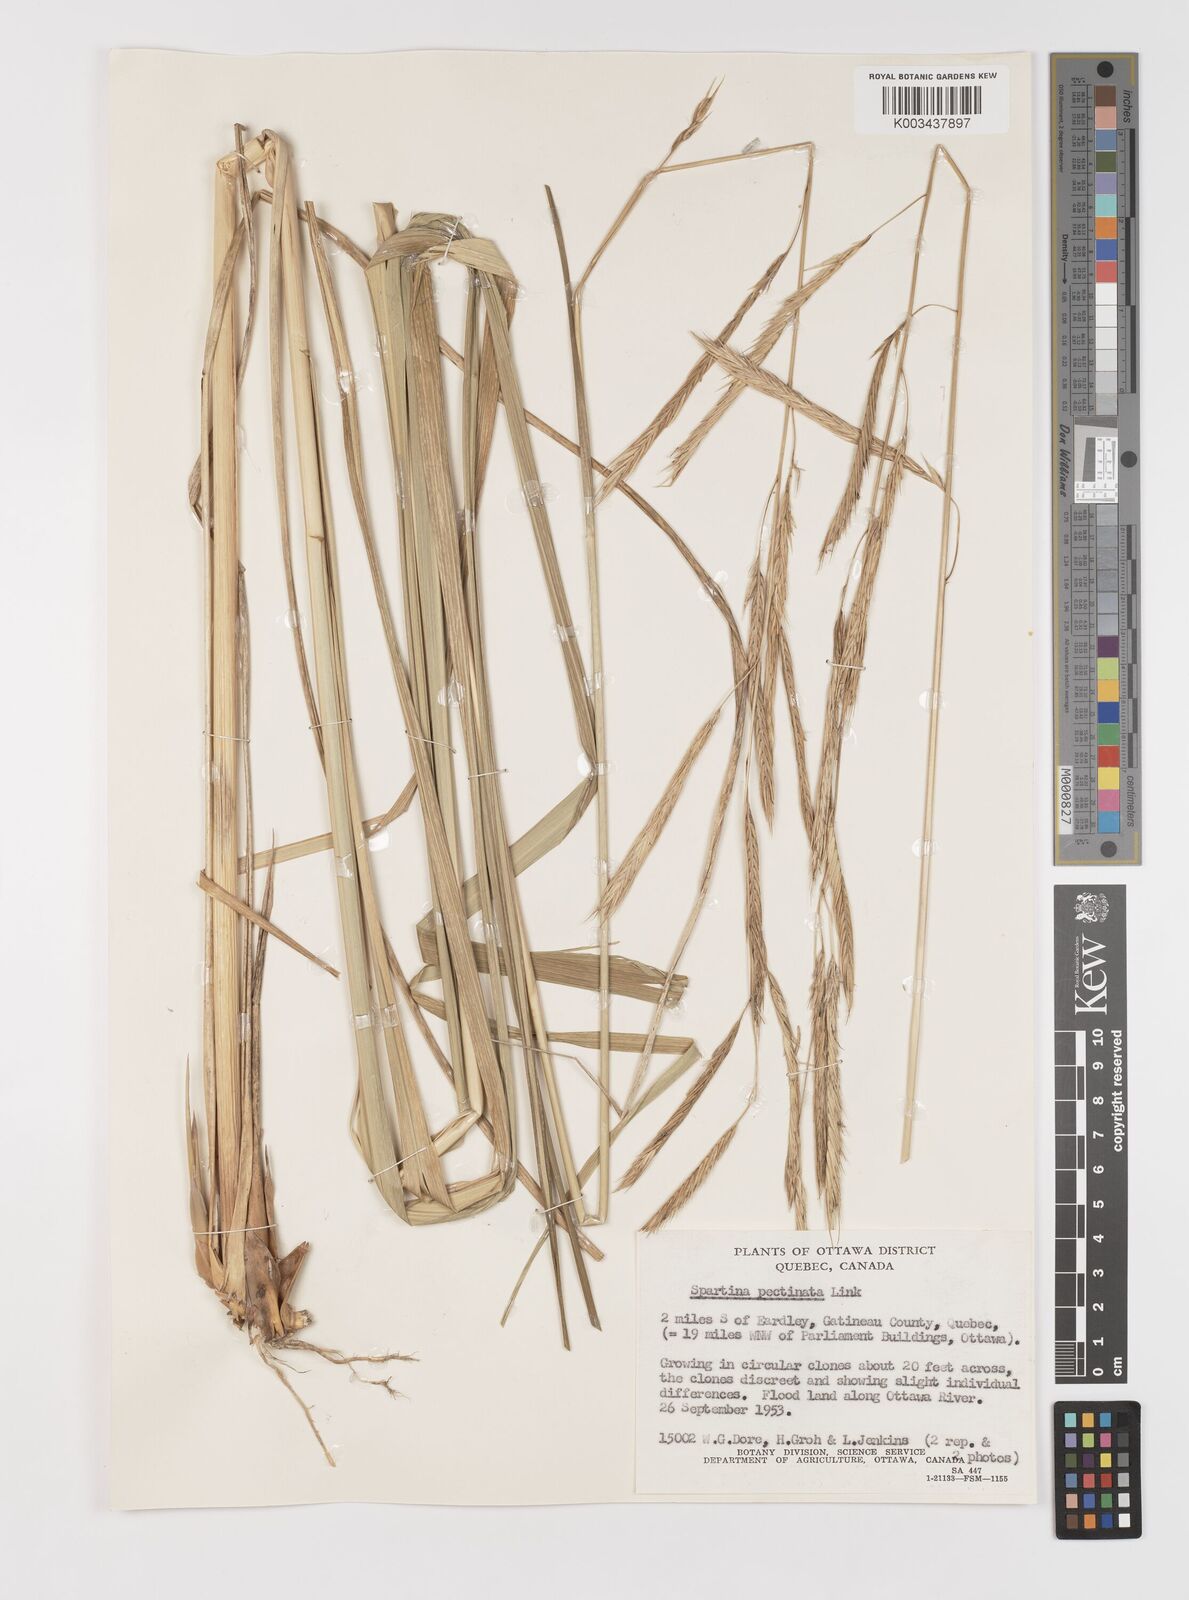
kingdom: Plantae
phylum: Tracheophyta
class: Liliopsida
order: Poales
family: Poaceae
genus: Sporobolus
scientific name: Sporobolus michauxianus
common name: Freshwater cordgrass
